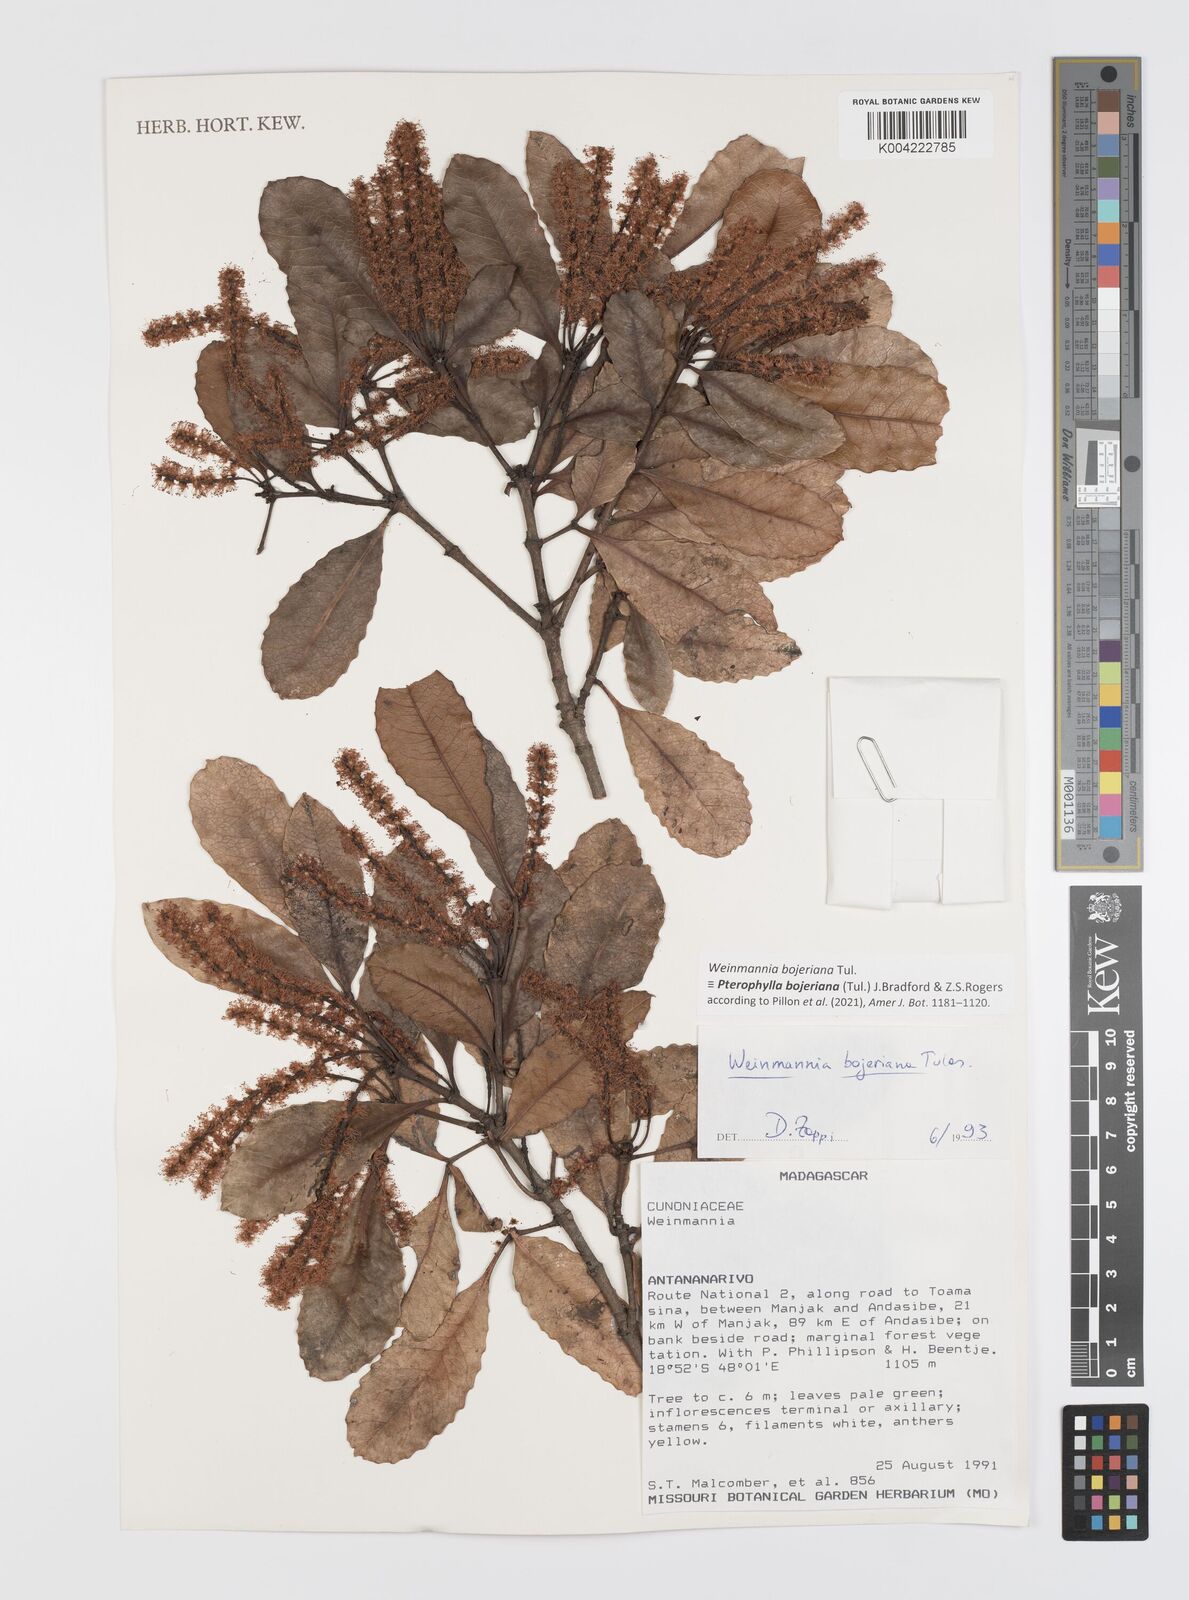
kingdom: Plantae
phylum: Tracheophyta
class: Magnoliopsida
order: Oxalidales
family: Cunoniaceae
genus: Pterophylla
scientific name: Pterophylla
